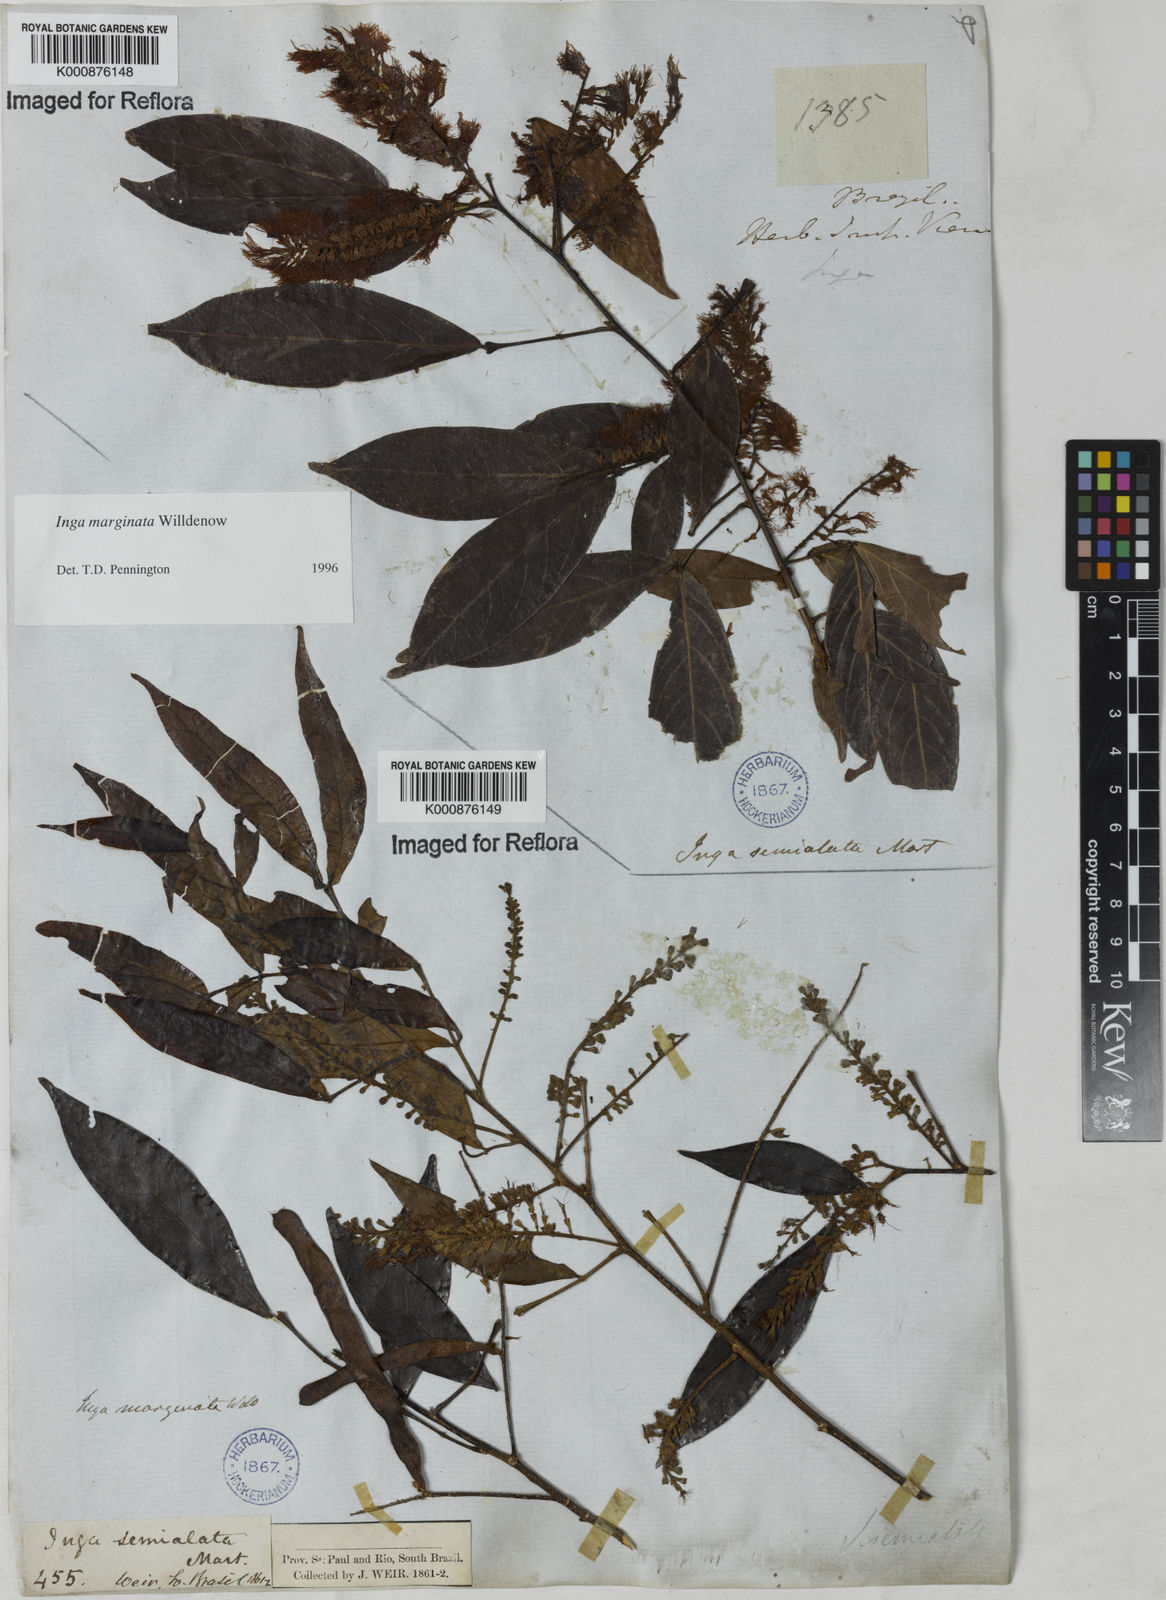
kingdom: Plantae
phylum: Tracheophyta
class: Magnoliopsida
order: Fabales
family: Fabaceae
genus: Inga
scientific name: Inga marginata
